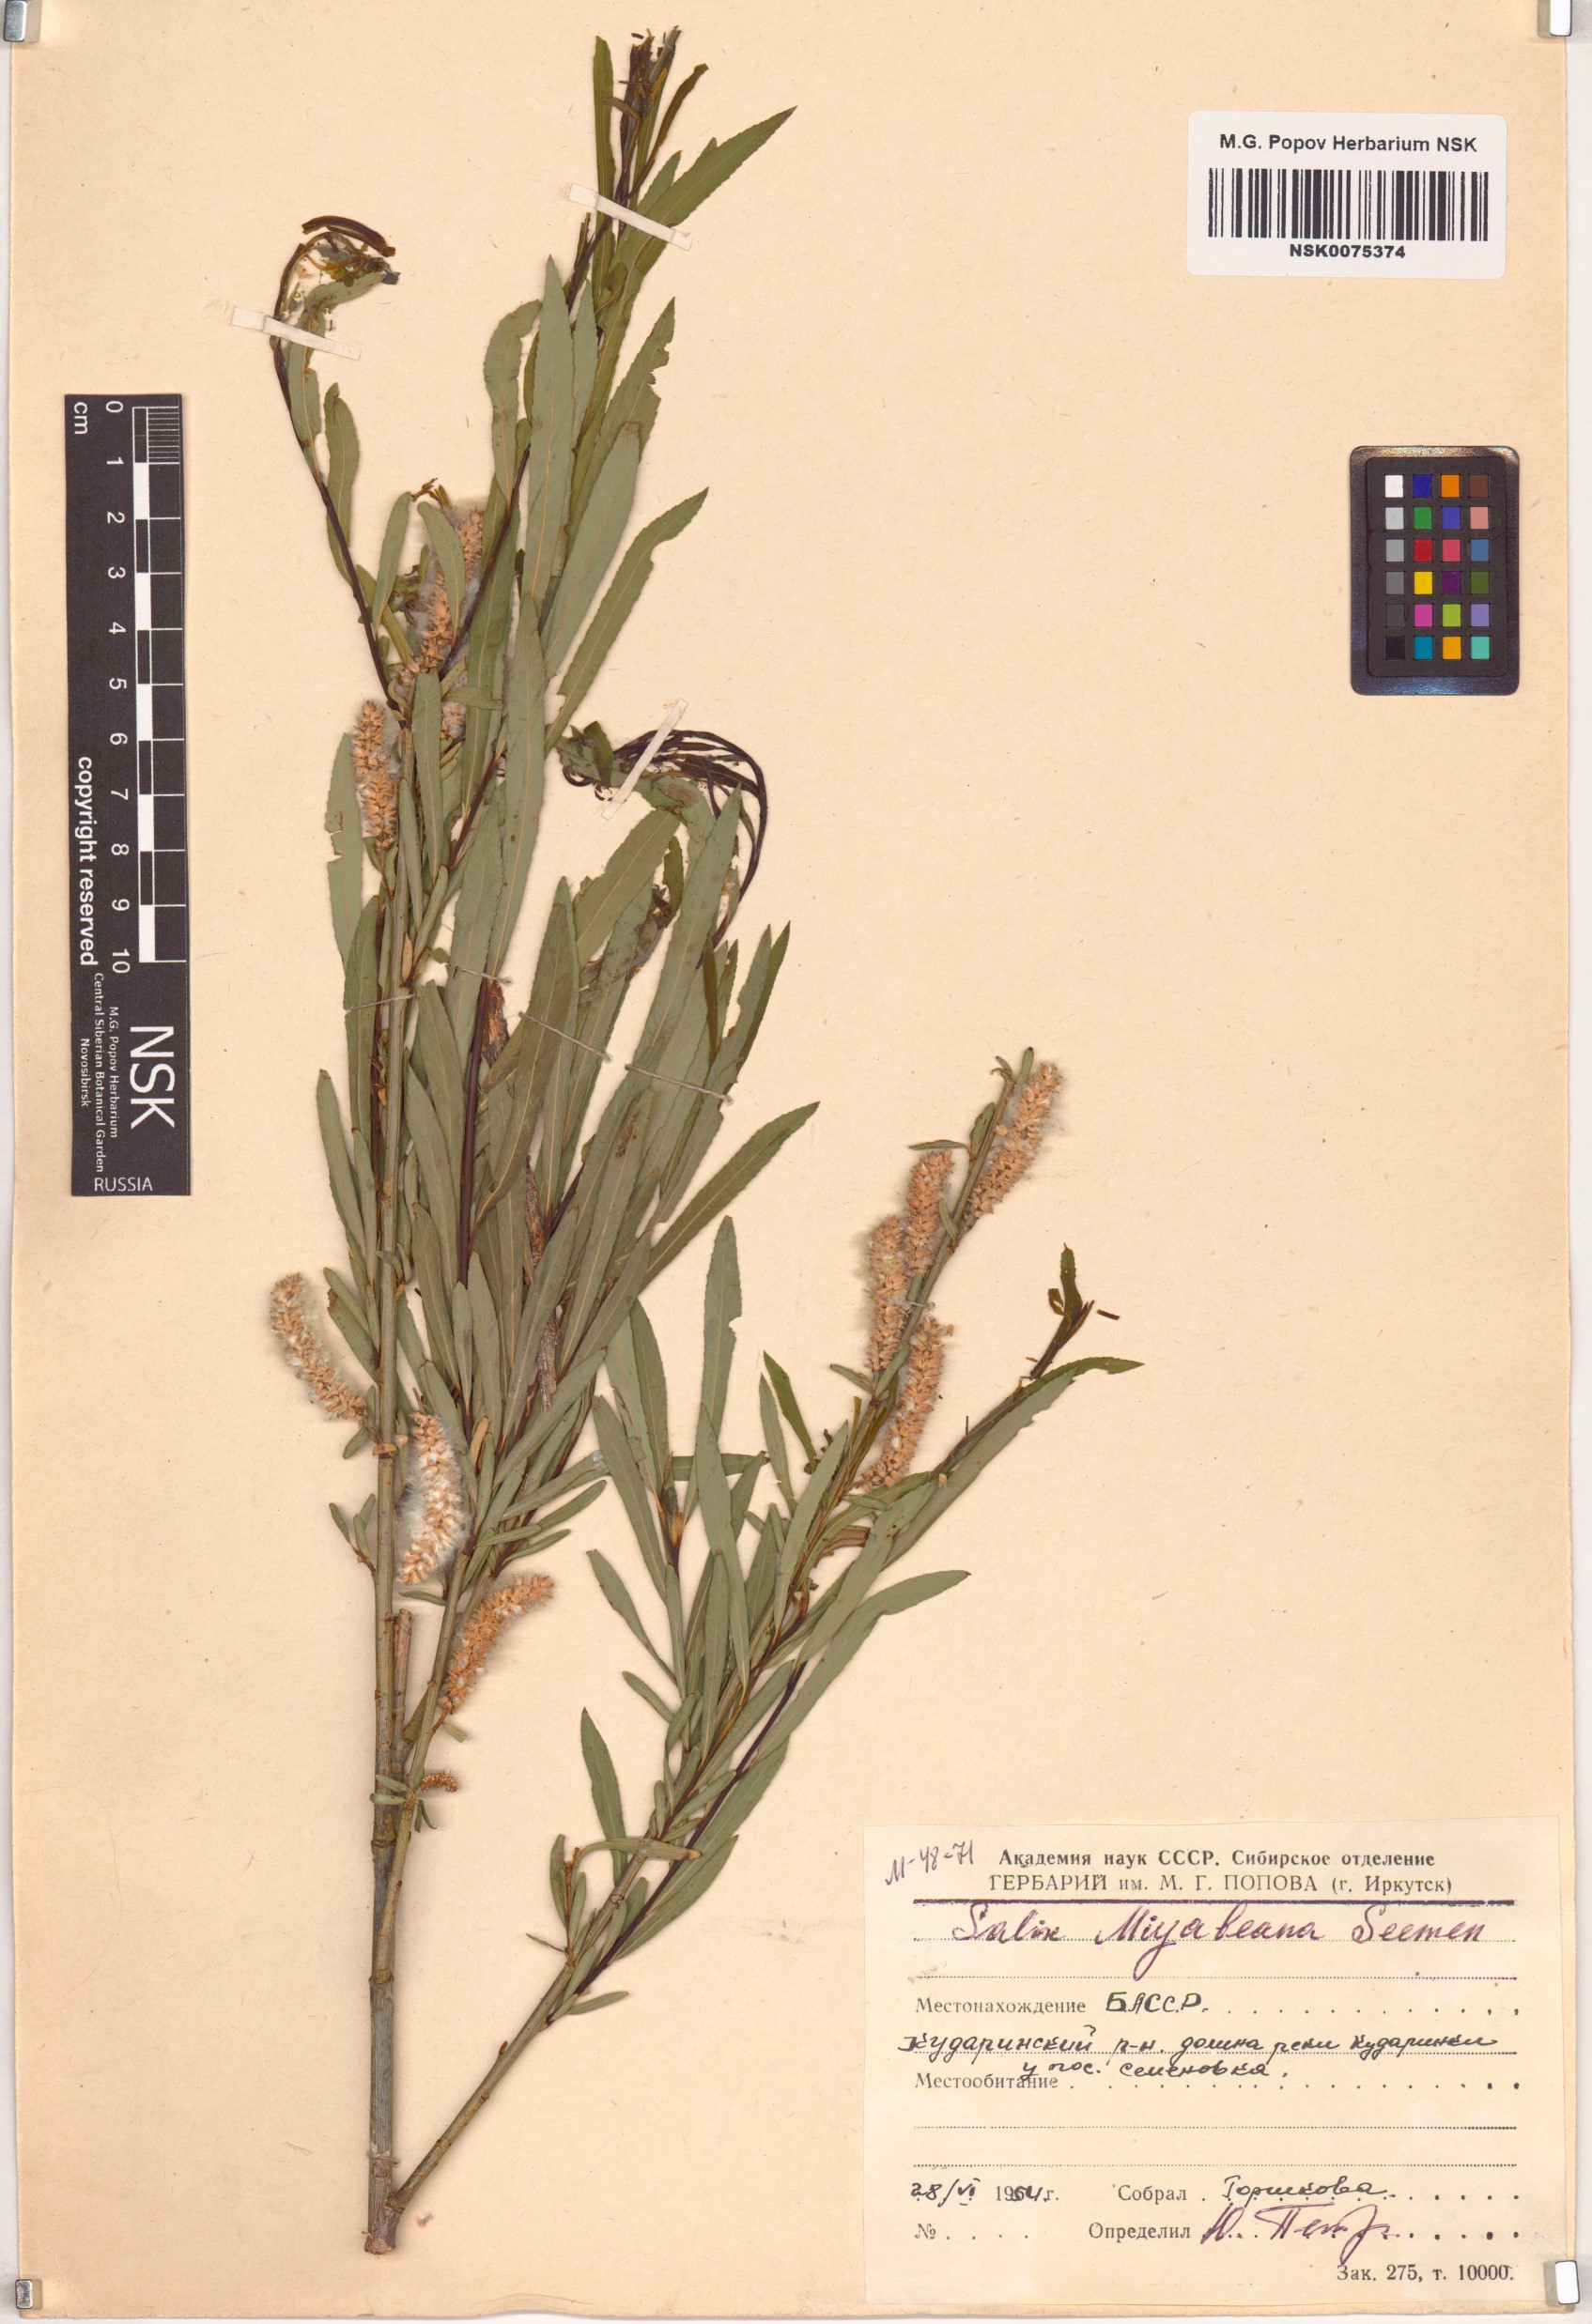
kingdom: Plantae
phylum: Tracheophyta
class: Magnoliopsida
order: Malpighiales
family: Salicaceae
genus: Salix
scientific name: Salix miyabeana
